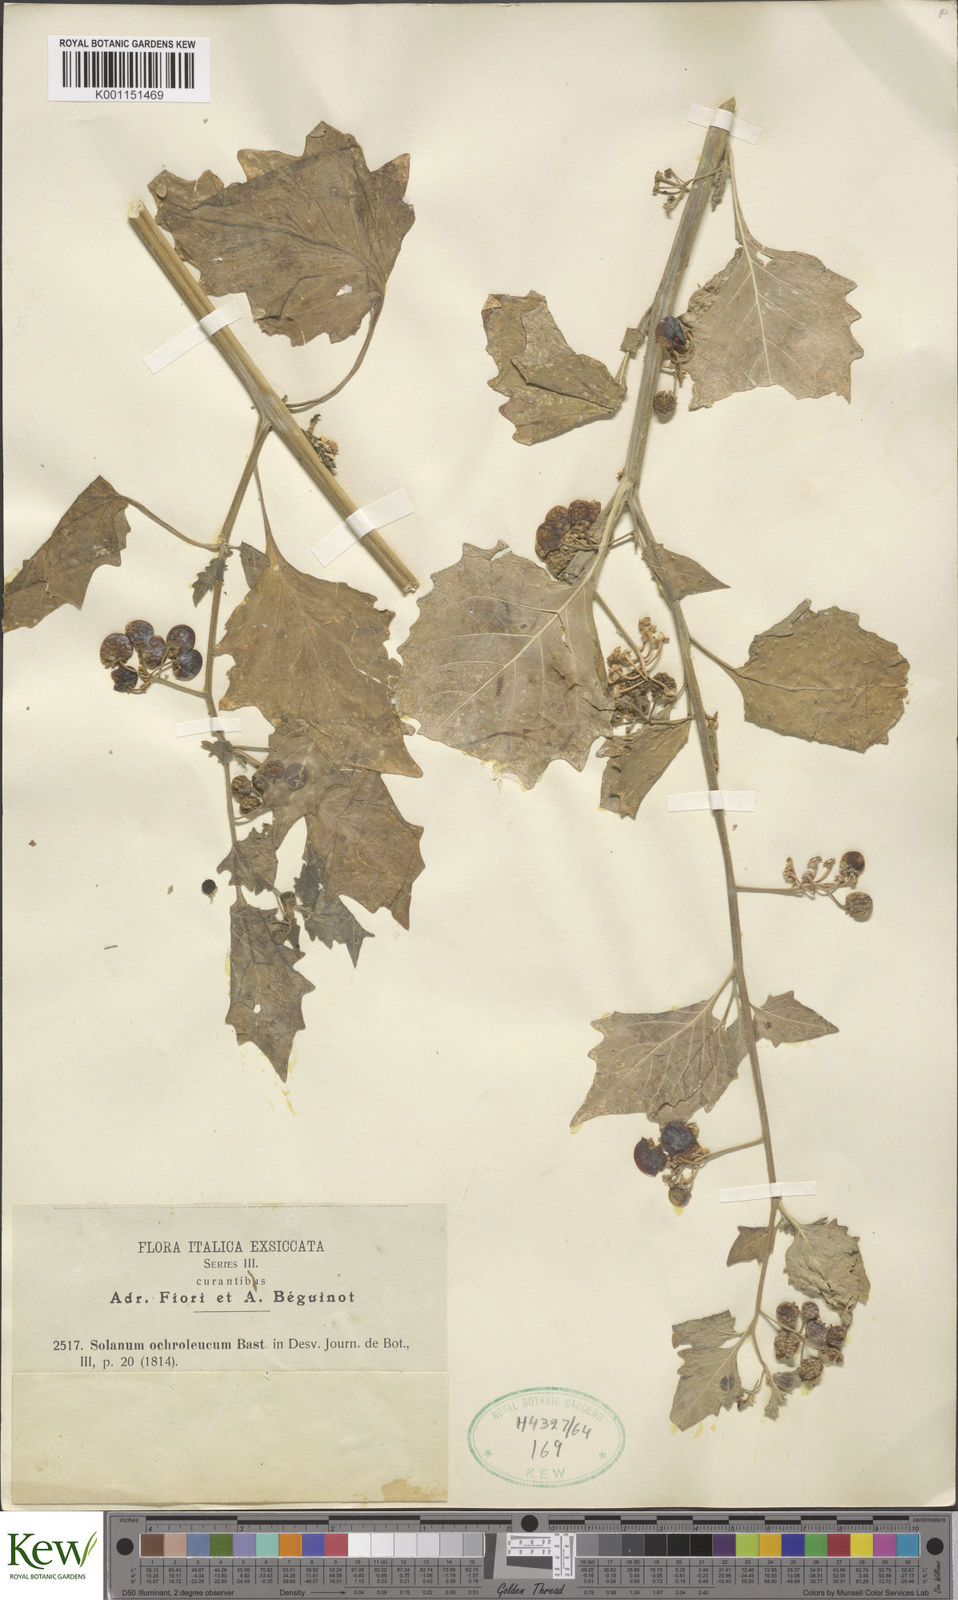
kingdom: Plantae
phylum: Tracheophyta
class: Magnoliopsida
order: Solanales
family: Solanaceae
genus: Solanum
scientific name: Solanum villosum
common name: Red nightshade
